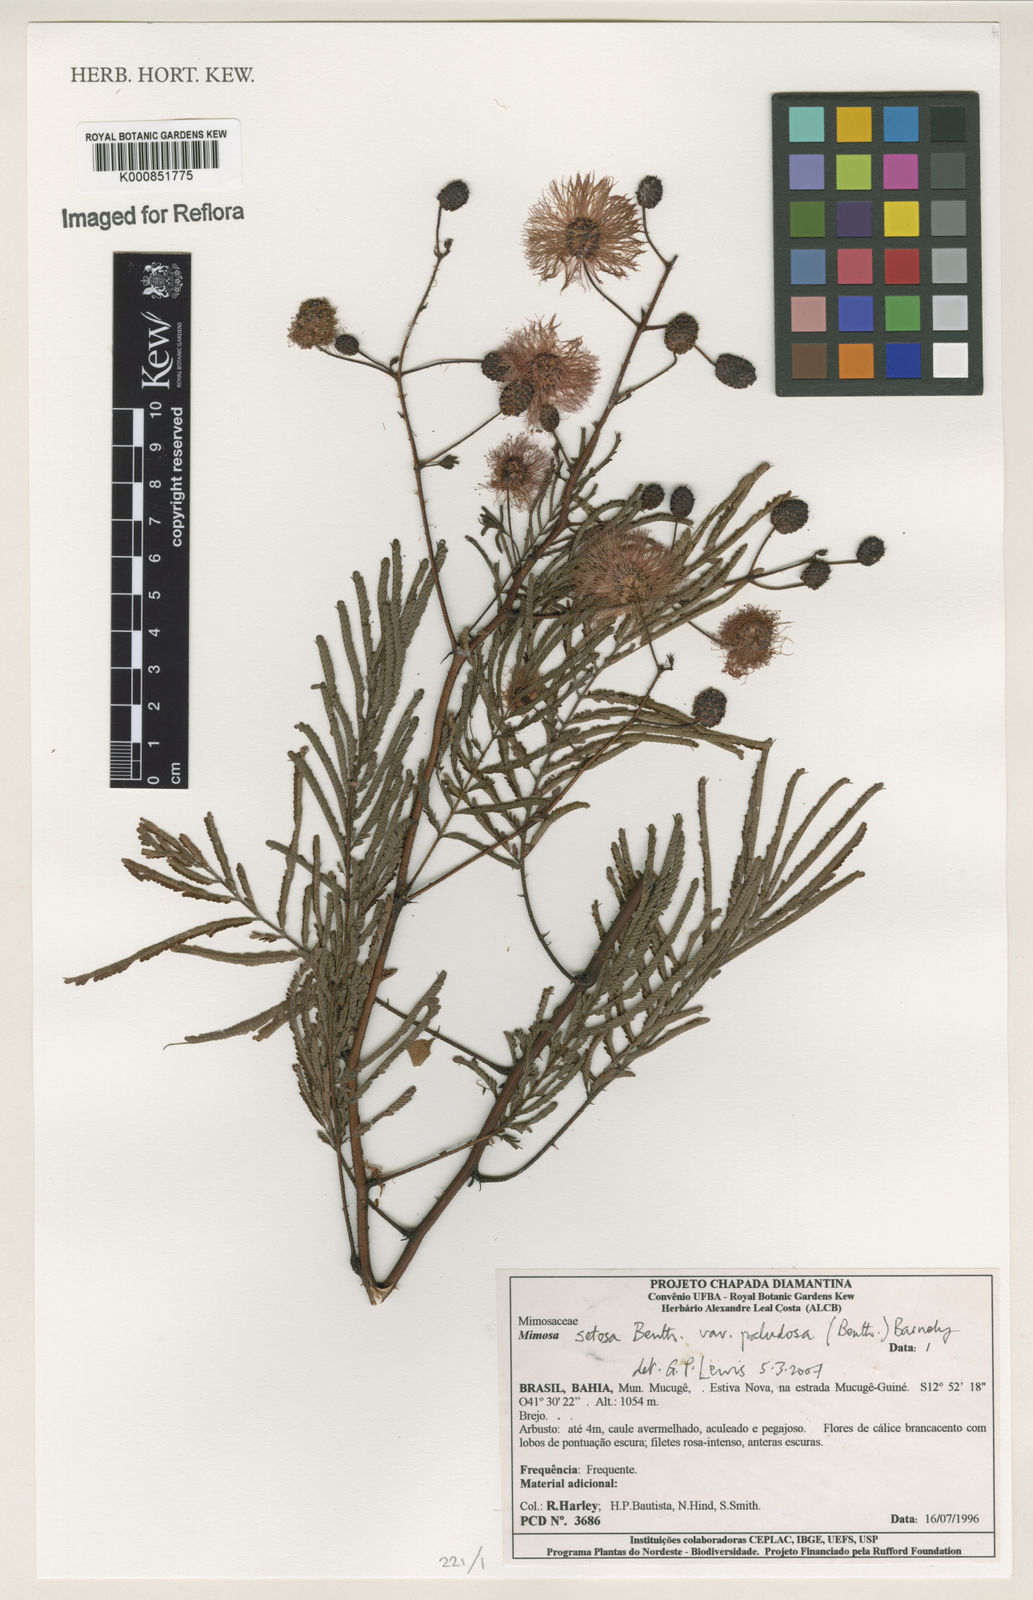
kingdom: Plantae
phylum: Tracheophyta
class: Magnoliopsida
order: Fabales
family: Fabaceae
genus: Mimosa
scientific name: Mimosa paludosa
